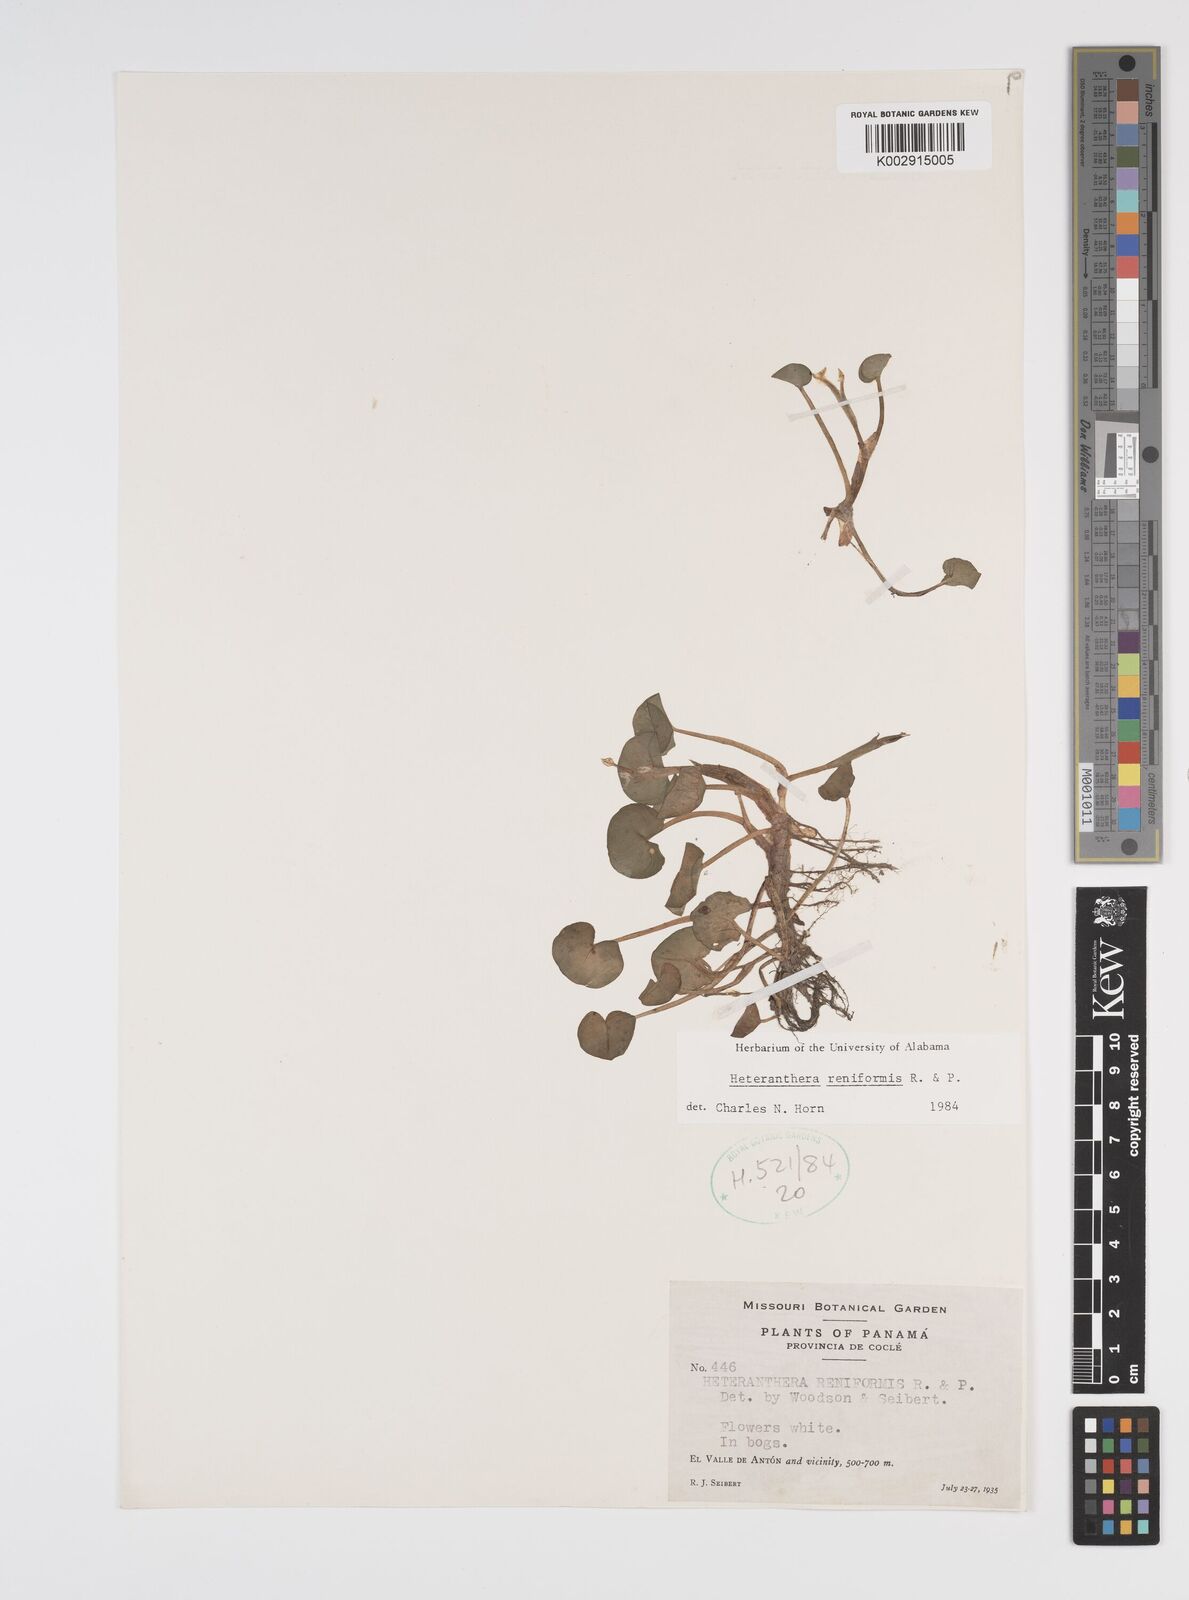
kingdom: Plantae
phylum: Tracheophyta
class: Liliopsida
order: Commelinales
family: Pontederiaceae
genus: Heteranthera
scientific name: Heteranthera reniformis
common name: Kidneyleaf mudplantain
